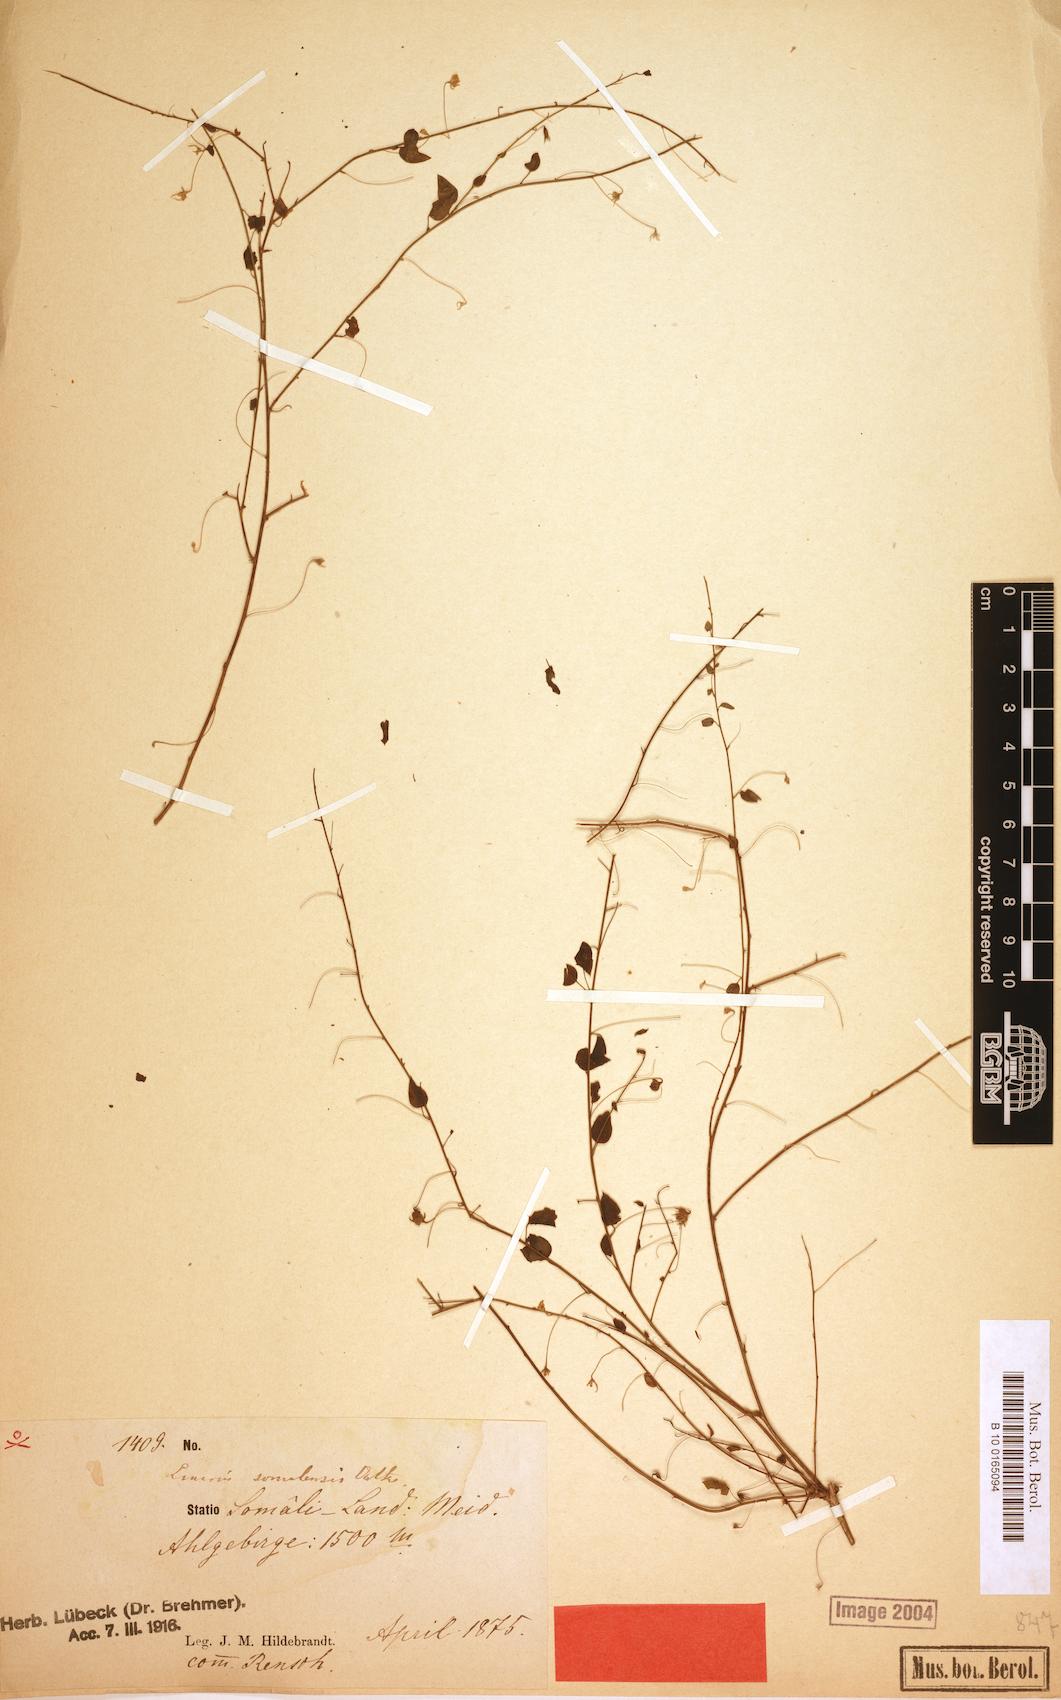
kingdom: Plantae
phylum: Tracheophyta
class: Magnoliopsida
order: Lamiales
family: Plantaginaceae
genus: Nanorrhinum
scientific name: Nanorrhinum ramosissimum
